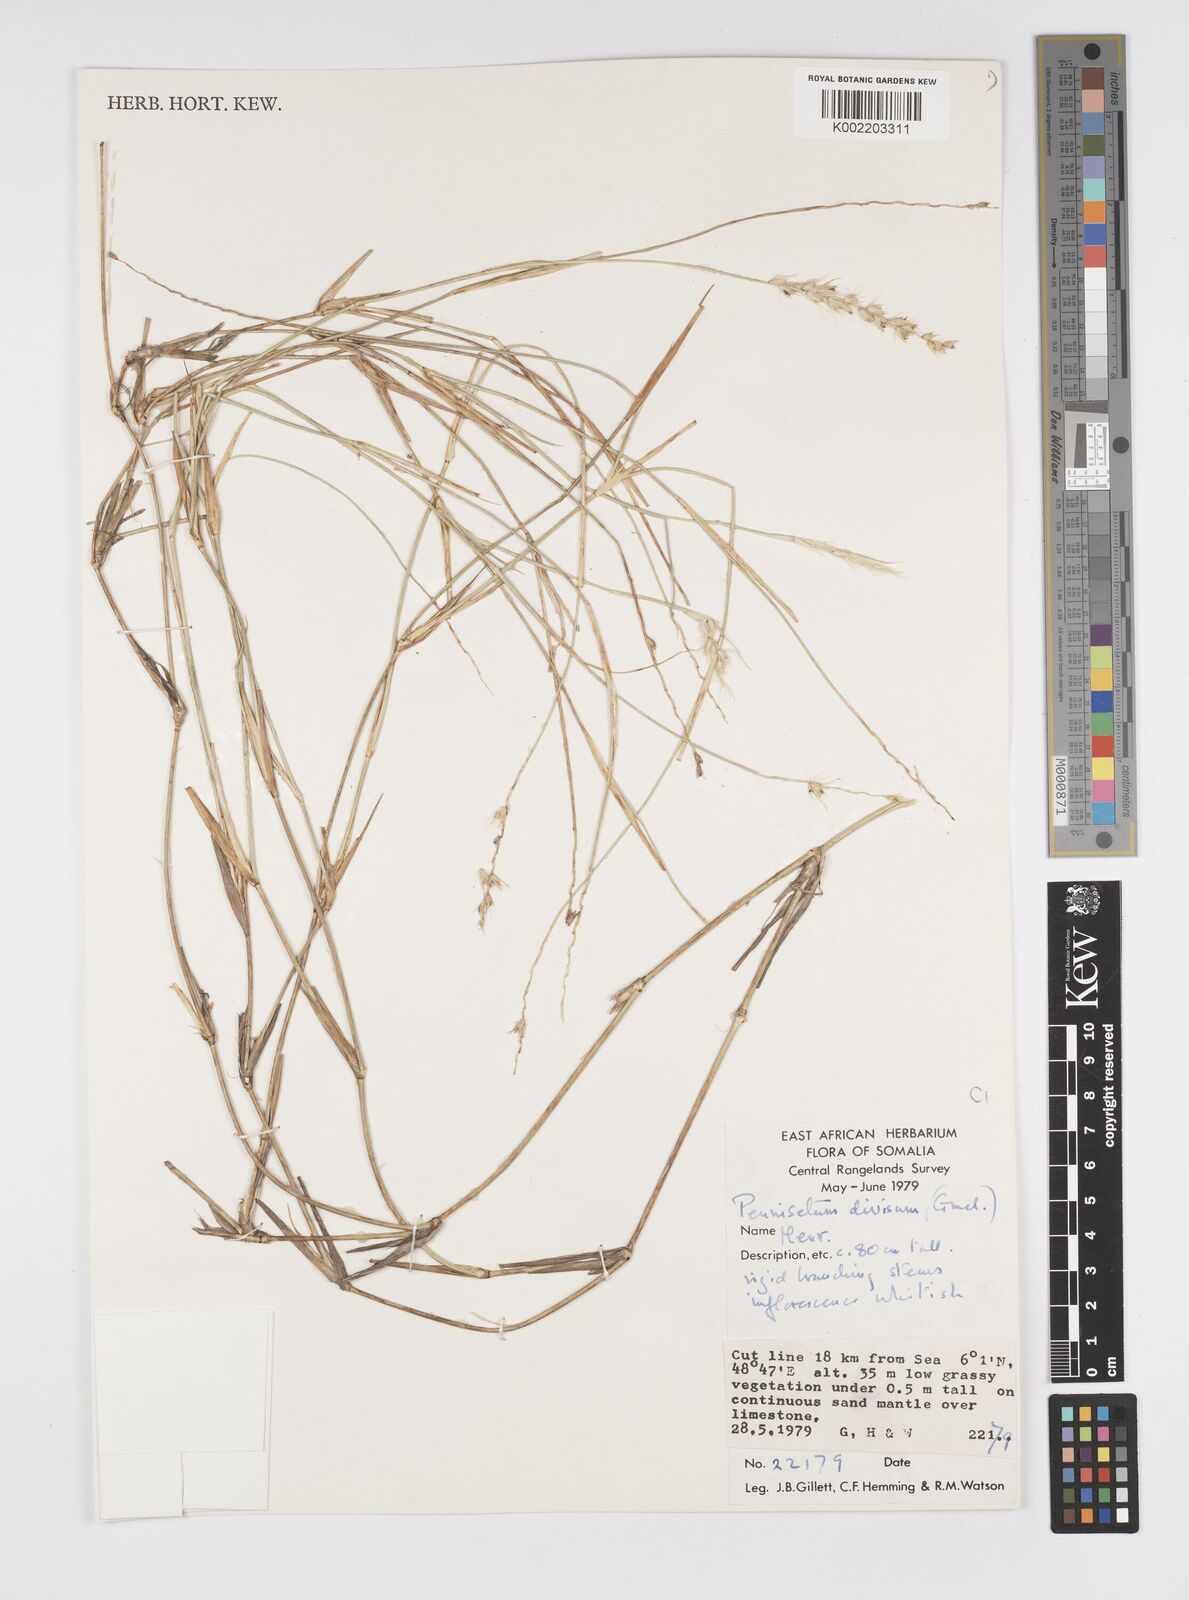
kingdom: Plantae
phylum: Tracheophyta
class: Liliopsida
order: Poales
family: Poaceae
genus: Cenchrus
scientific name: Cenchrus divisus
